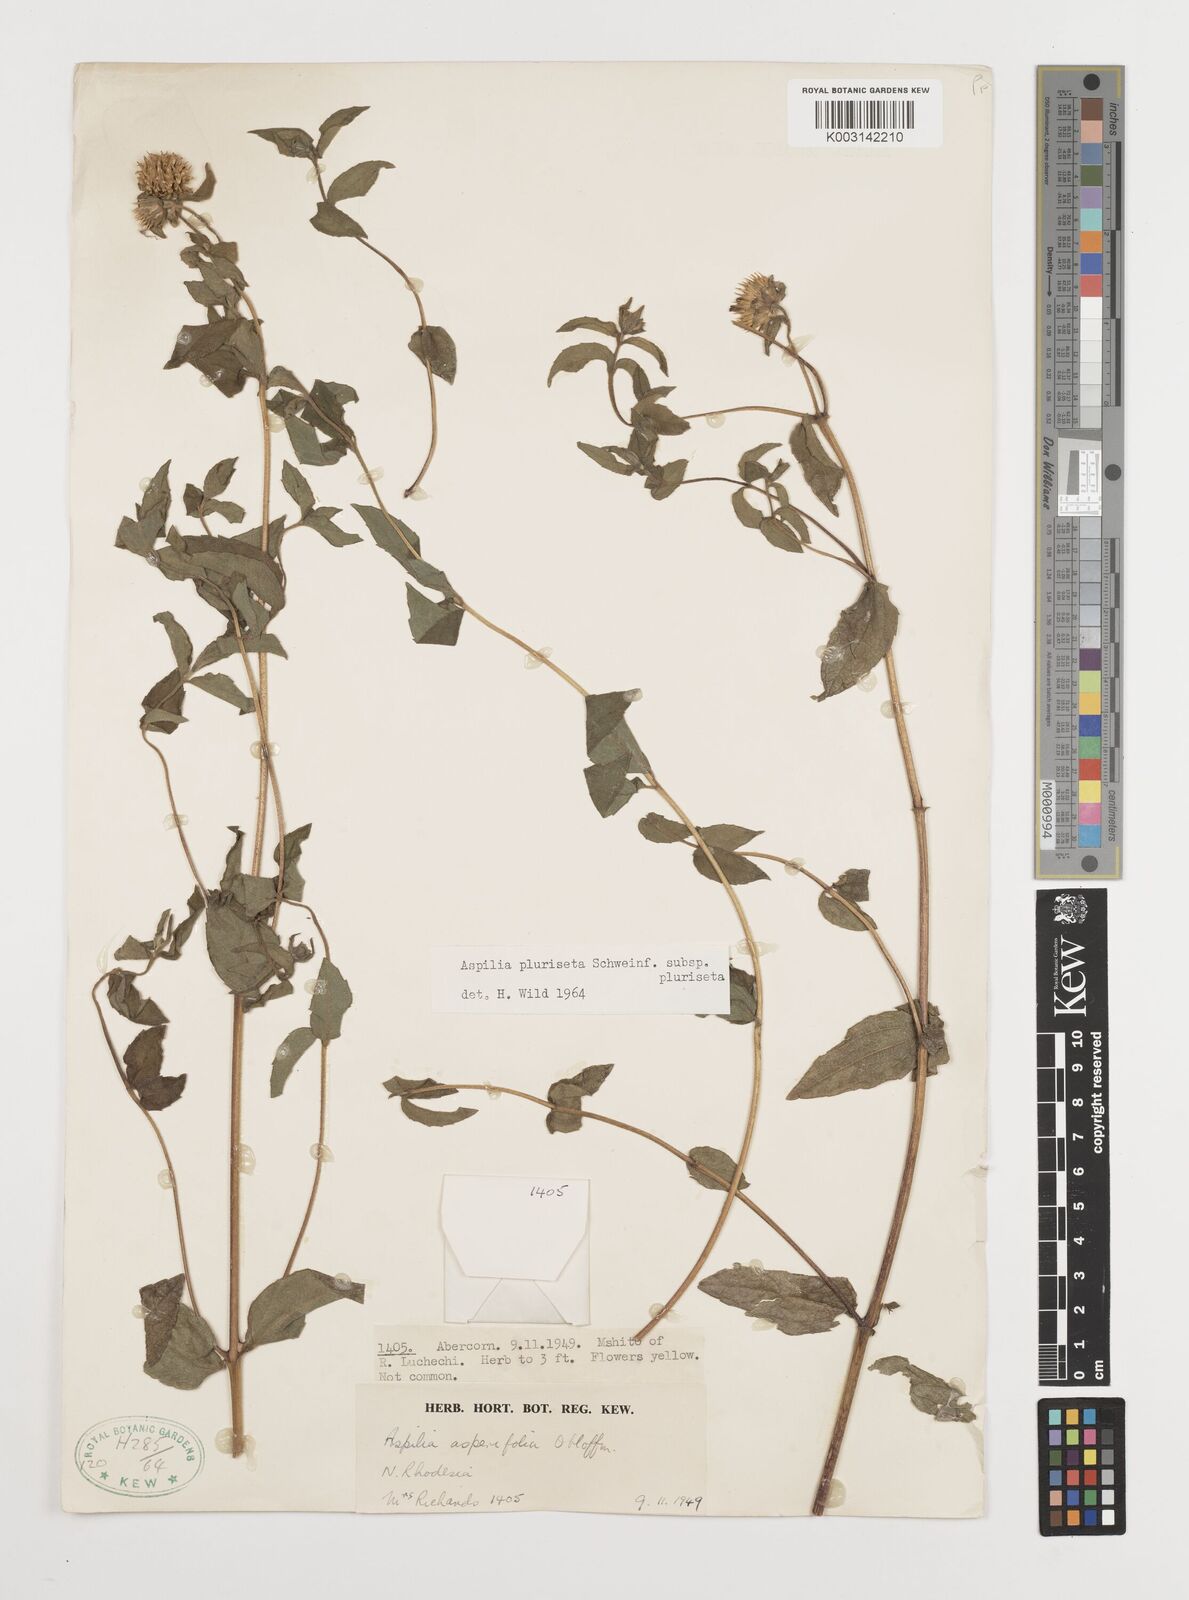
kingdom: Plantae
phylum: Tracheophyta
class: Magnoliopsida
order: Asterales
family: Asteraceae
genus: Aspilia
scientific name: Aspilia pluriseta
